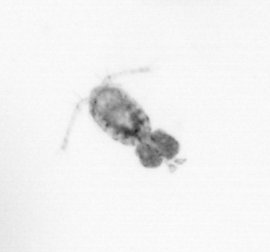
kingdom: Animalia
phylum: Arthropoda
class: Copepoda
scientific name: Copepoda
